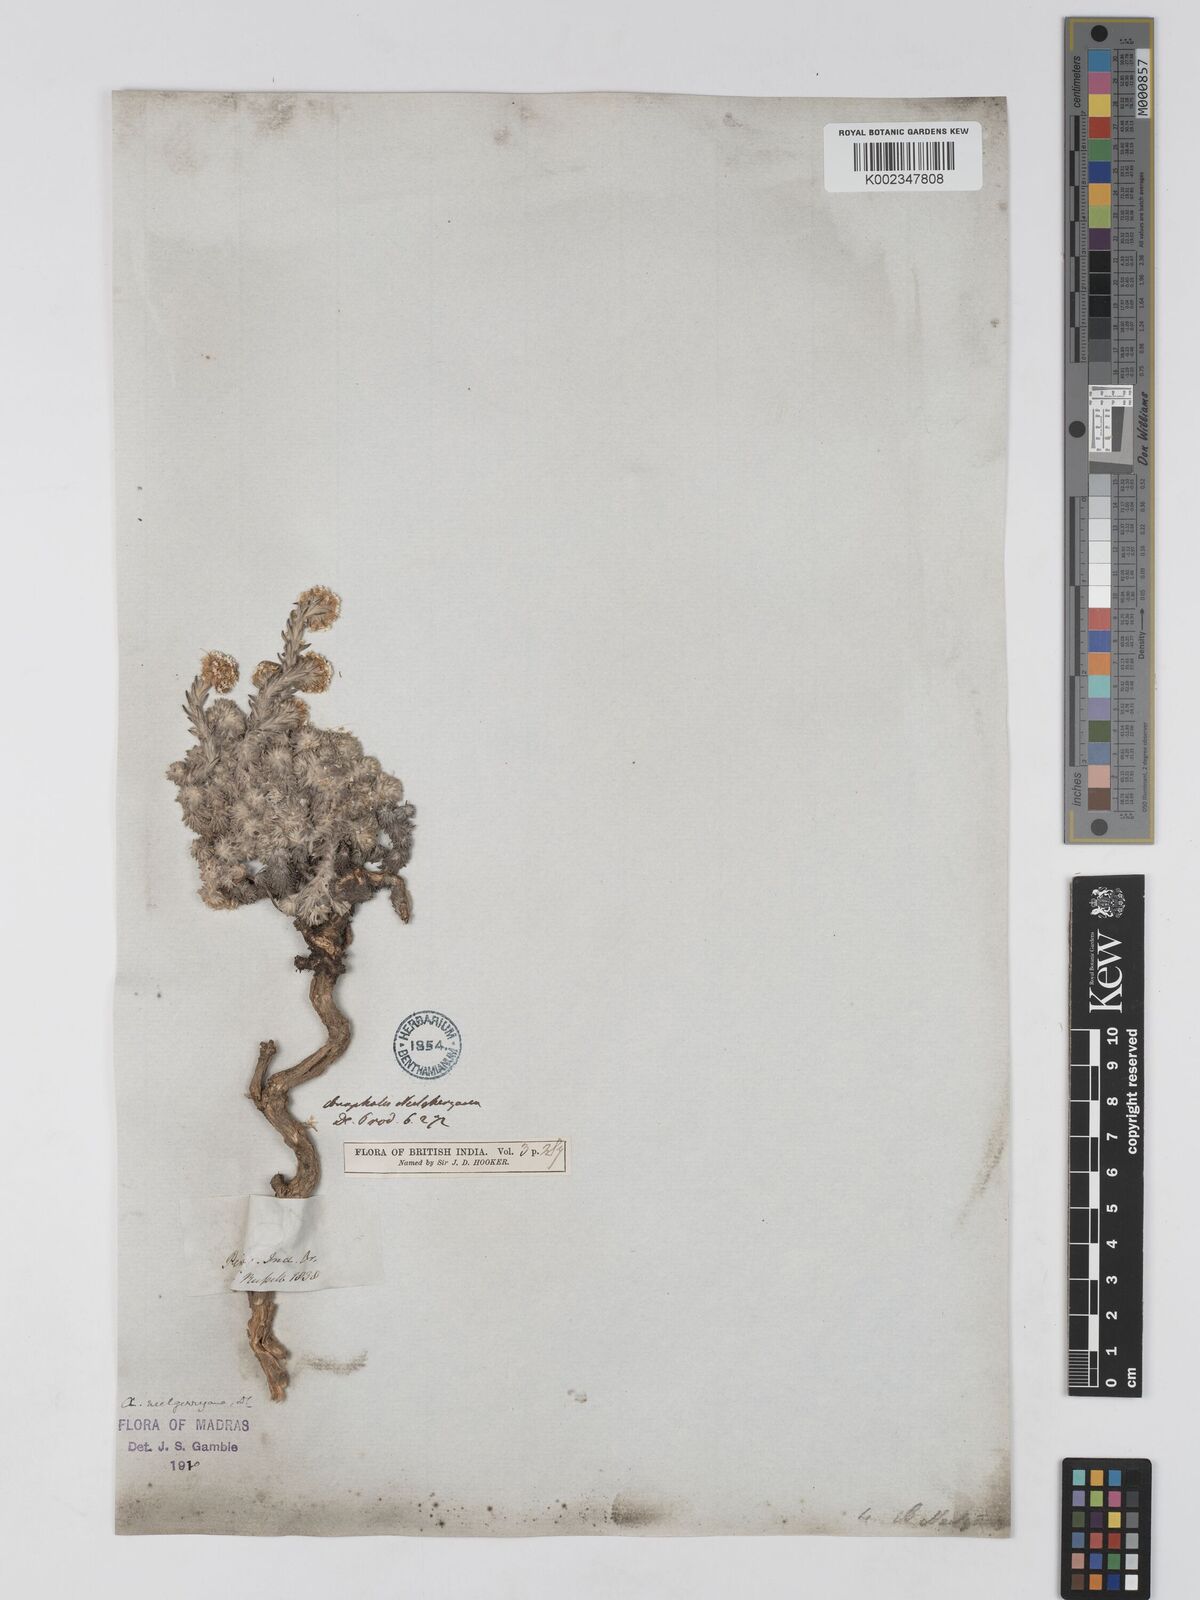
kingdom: Plantae
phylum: Tracheophyta
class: Magnoliopsida
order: Asterales
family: Asteraceae
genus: Anaphalis
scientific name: Anaphalis neelgerryana
